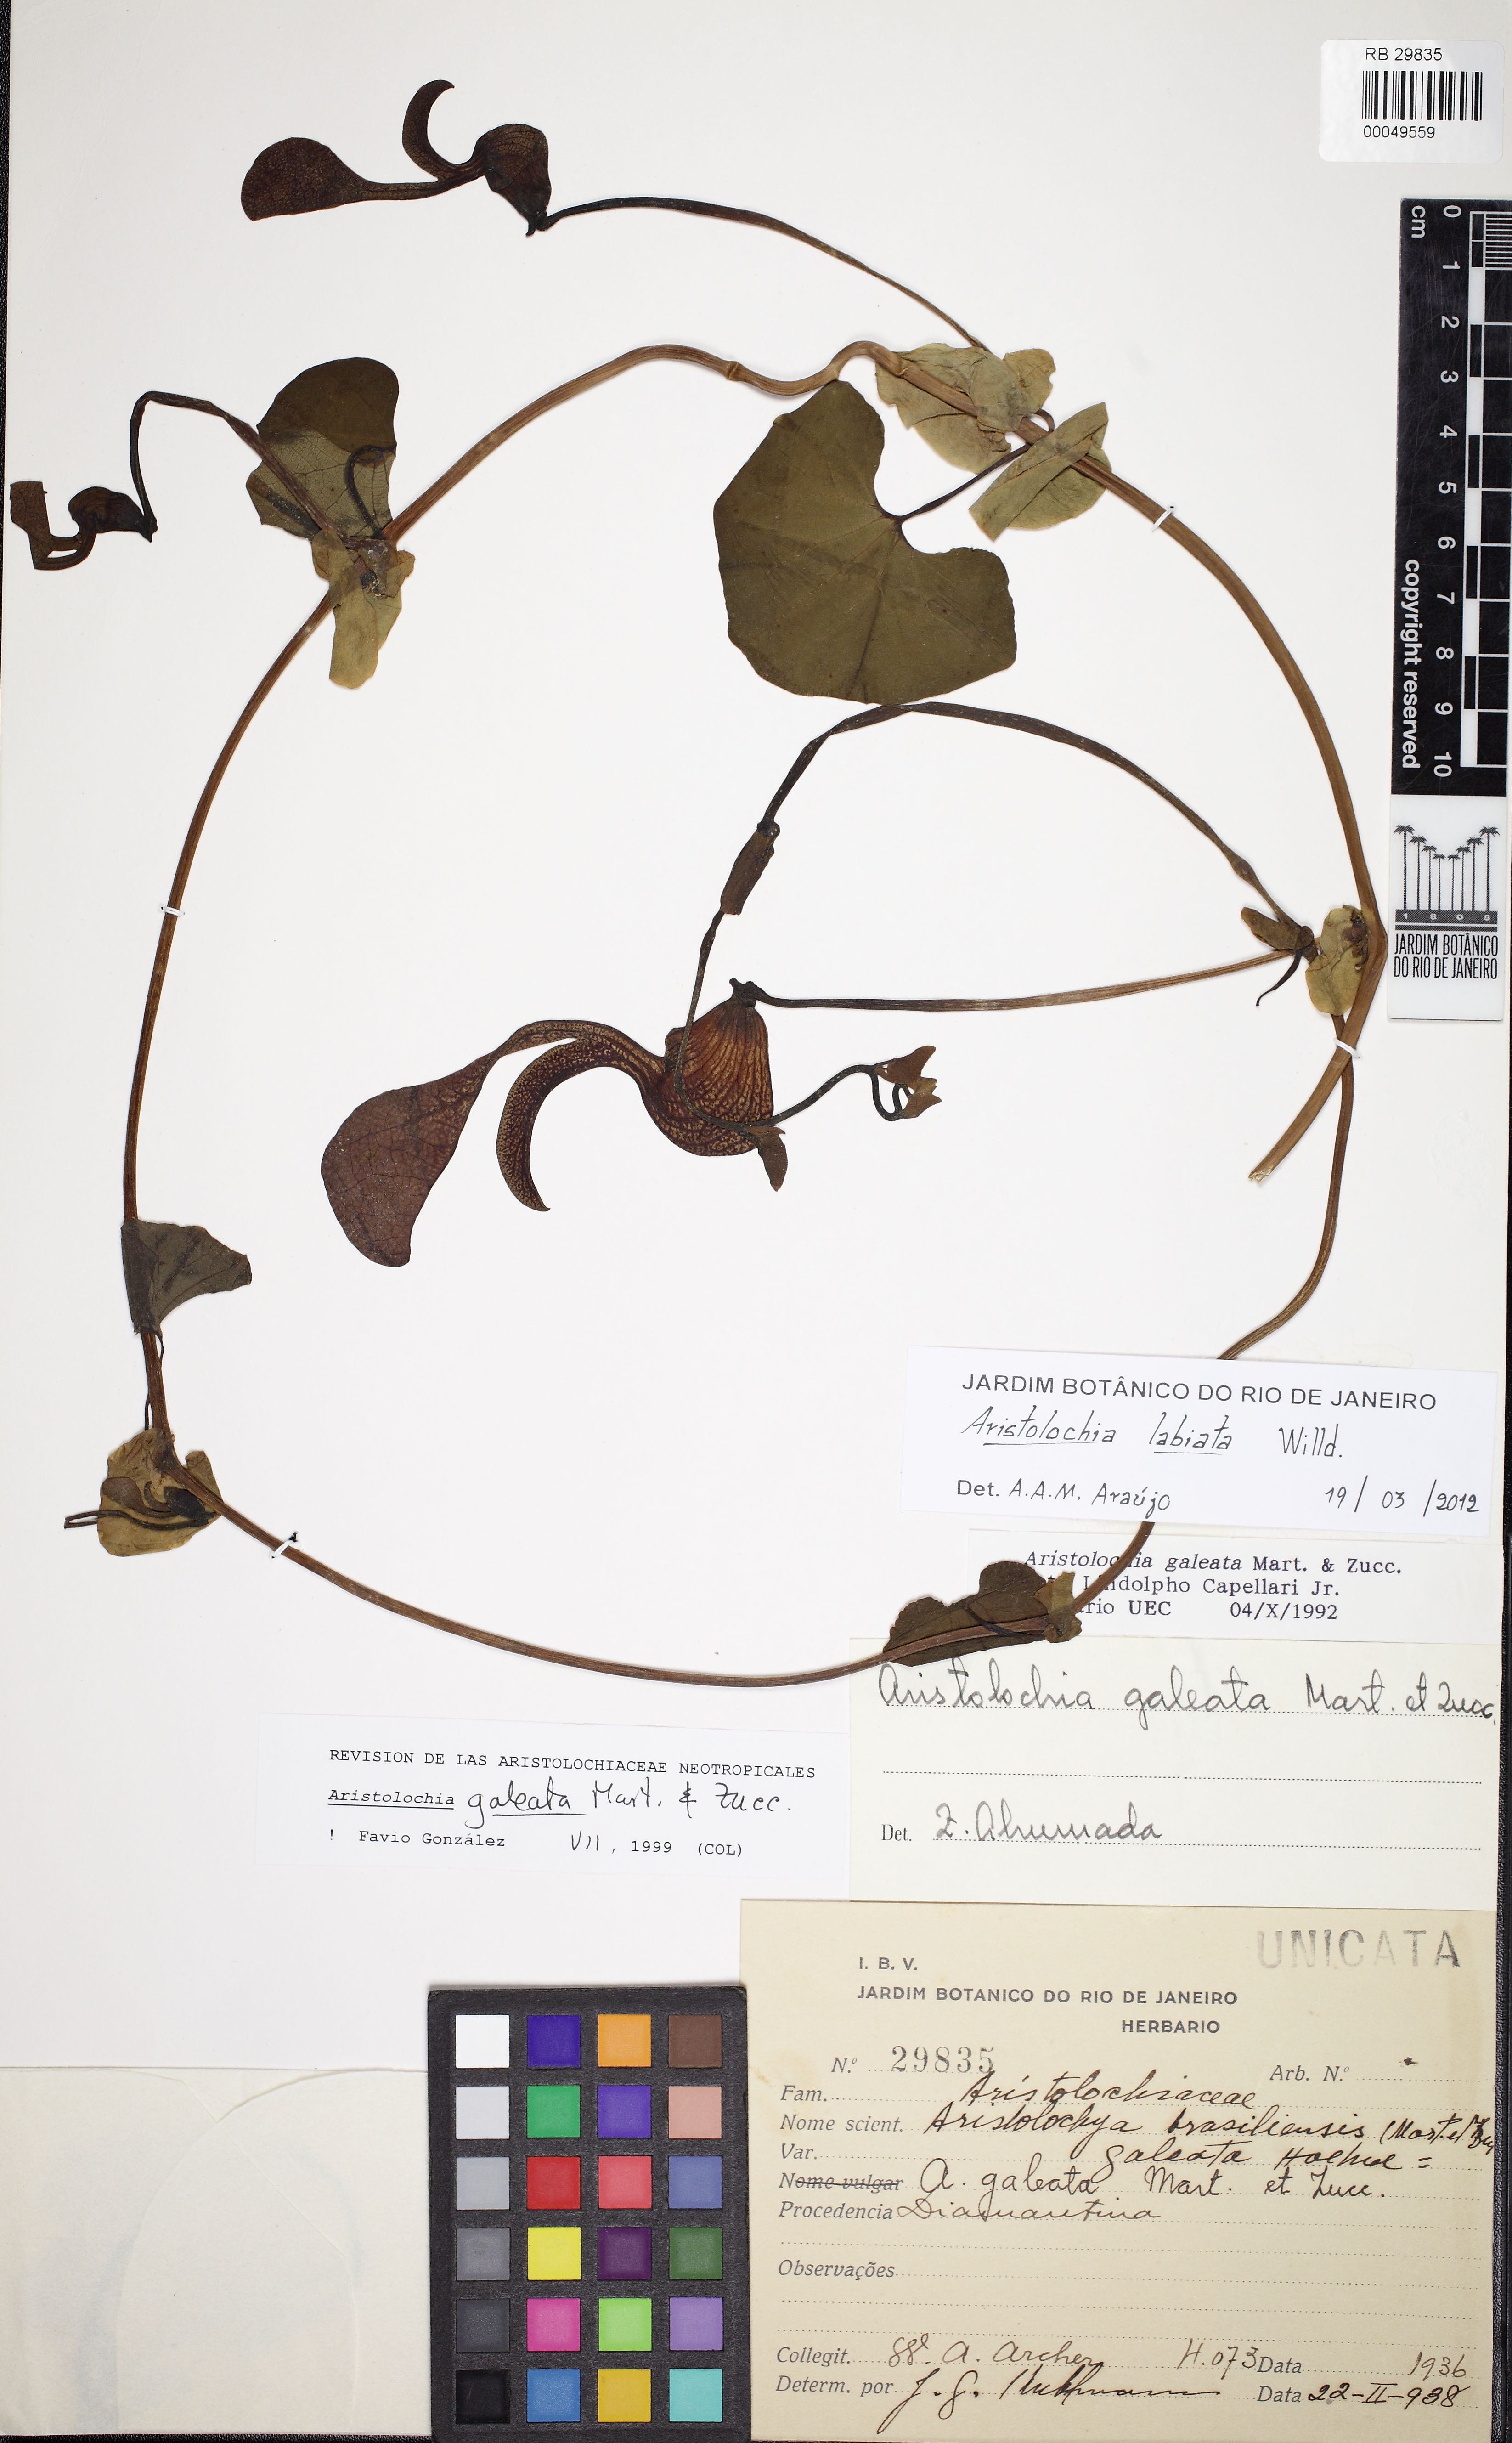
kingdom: Plantae
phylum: Tracheophyta
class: Magnoliopsida
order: Piperales
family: Aristolochiaceae
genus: Aristolochia
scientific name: Aristolochia labiata
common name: Mottled dutchman's pipe
